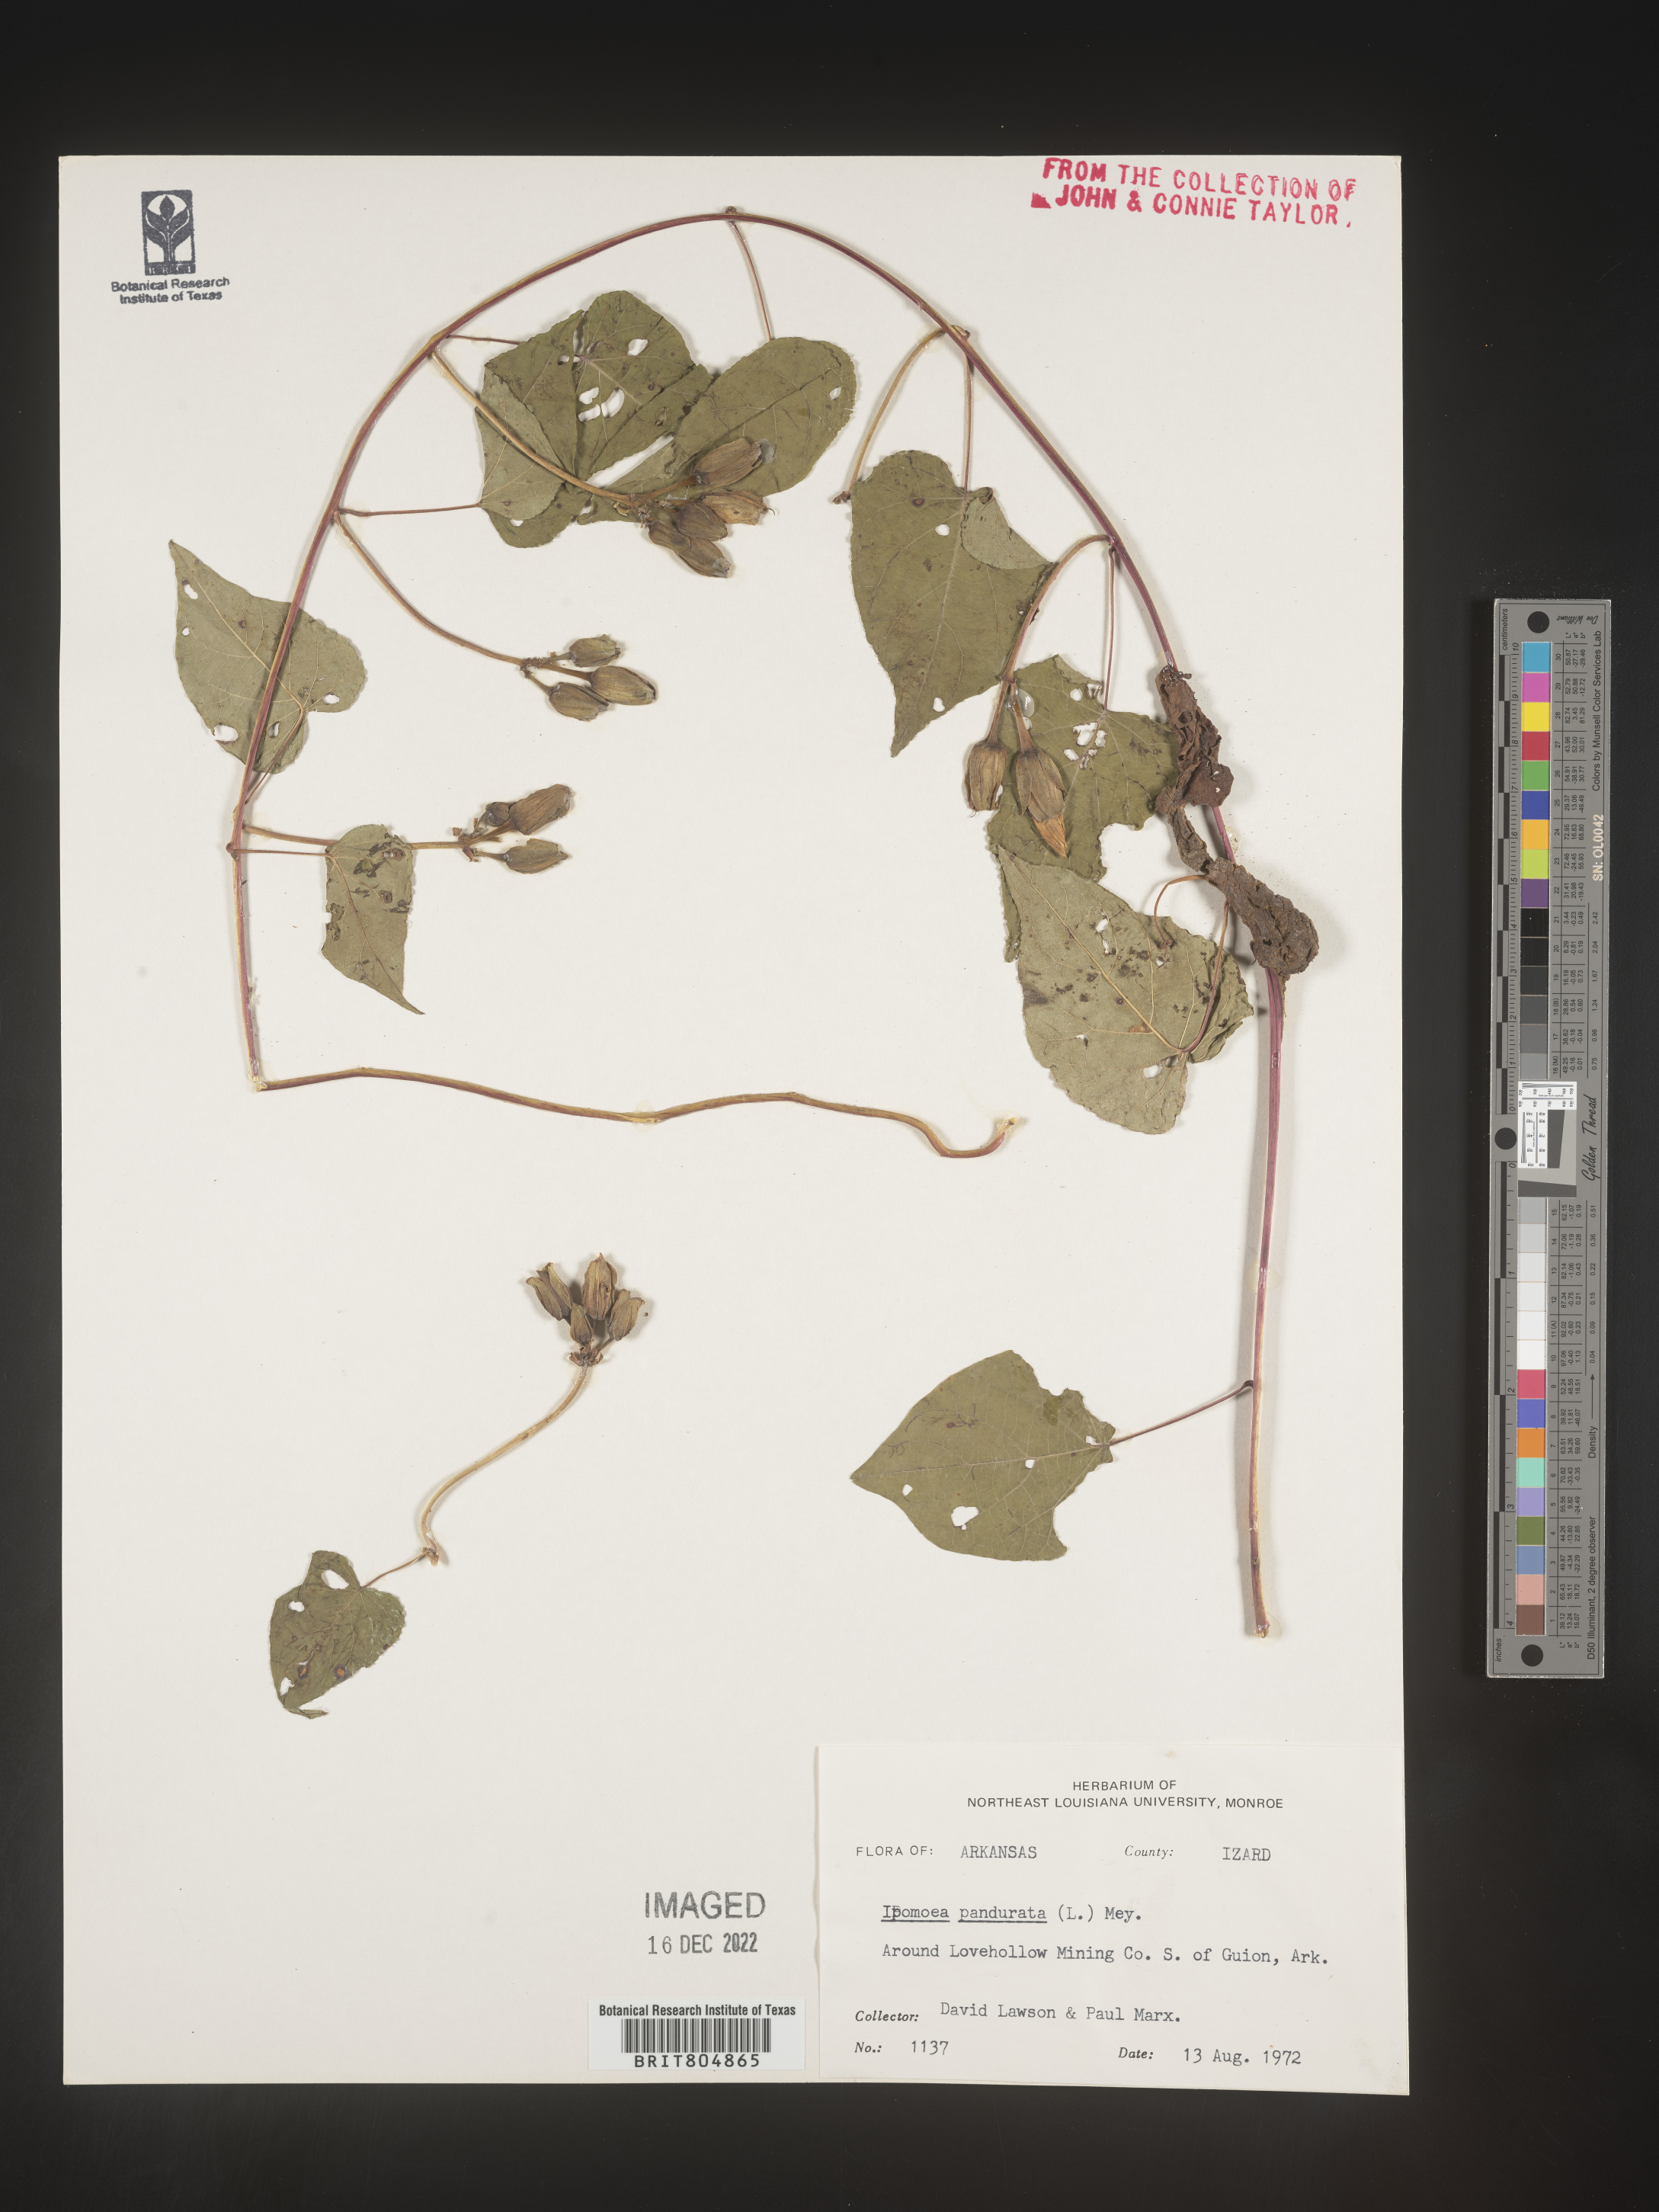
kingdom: Plantae
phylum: Tracheophyta
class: Magnoliopsida
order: Solanales
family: Convolvulaceae
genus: Ipomoea
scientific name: Ipomoea pandurata
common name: Man-of-the-earth
